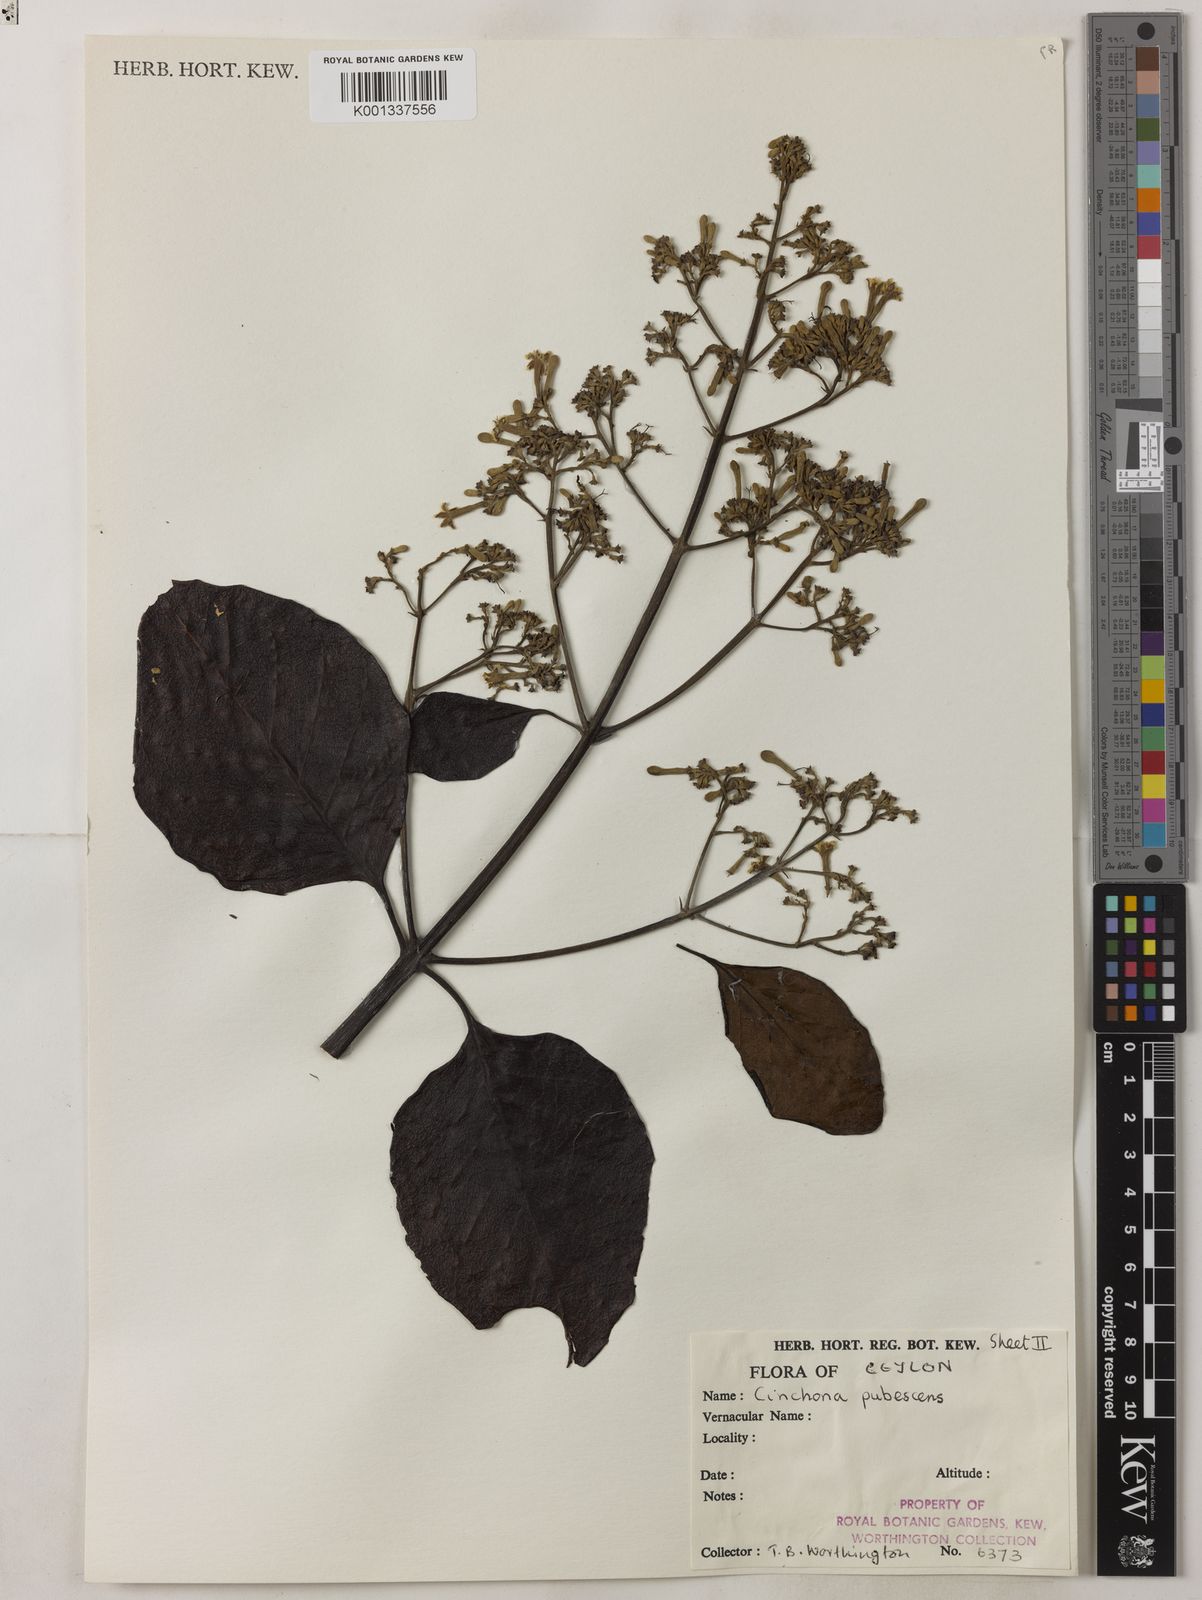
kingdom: Plantae
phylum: Tracheophyta
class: Magnoliopsida
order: Gentianales
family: Rubiaceae
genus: Cinchona
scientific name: Cinchona pubescens
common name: Quinine
